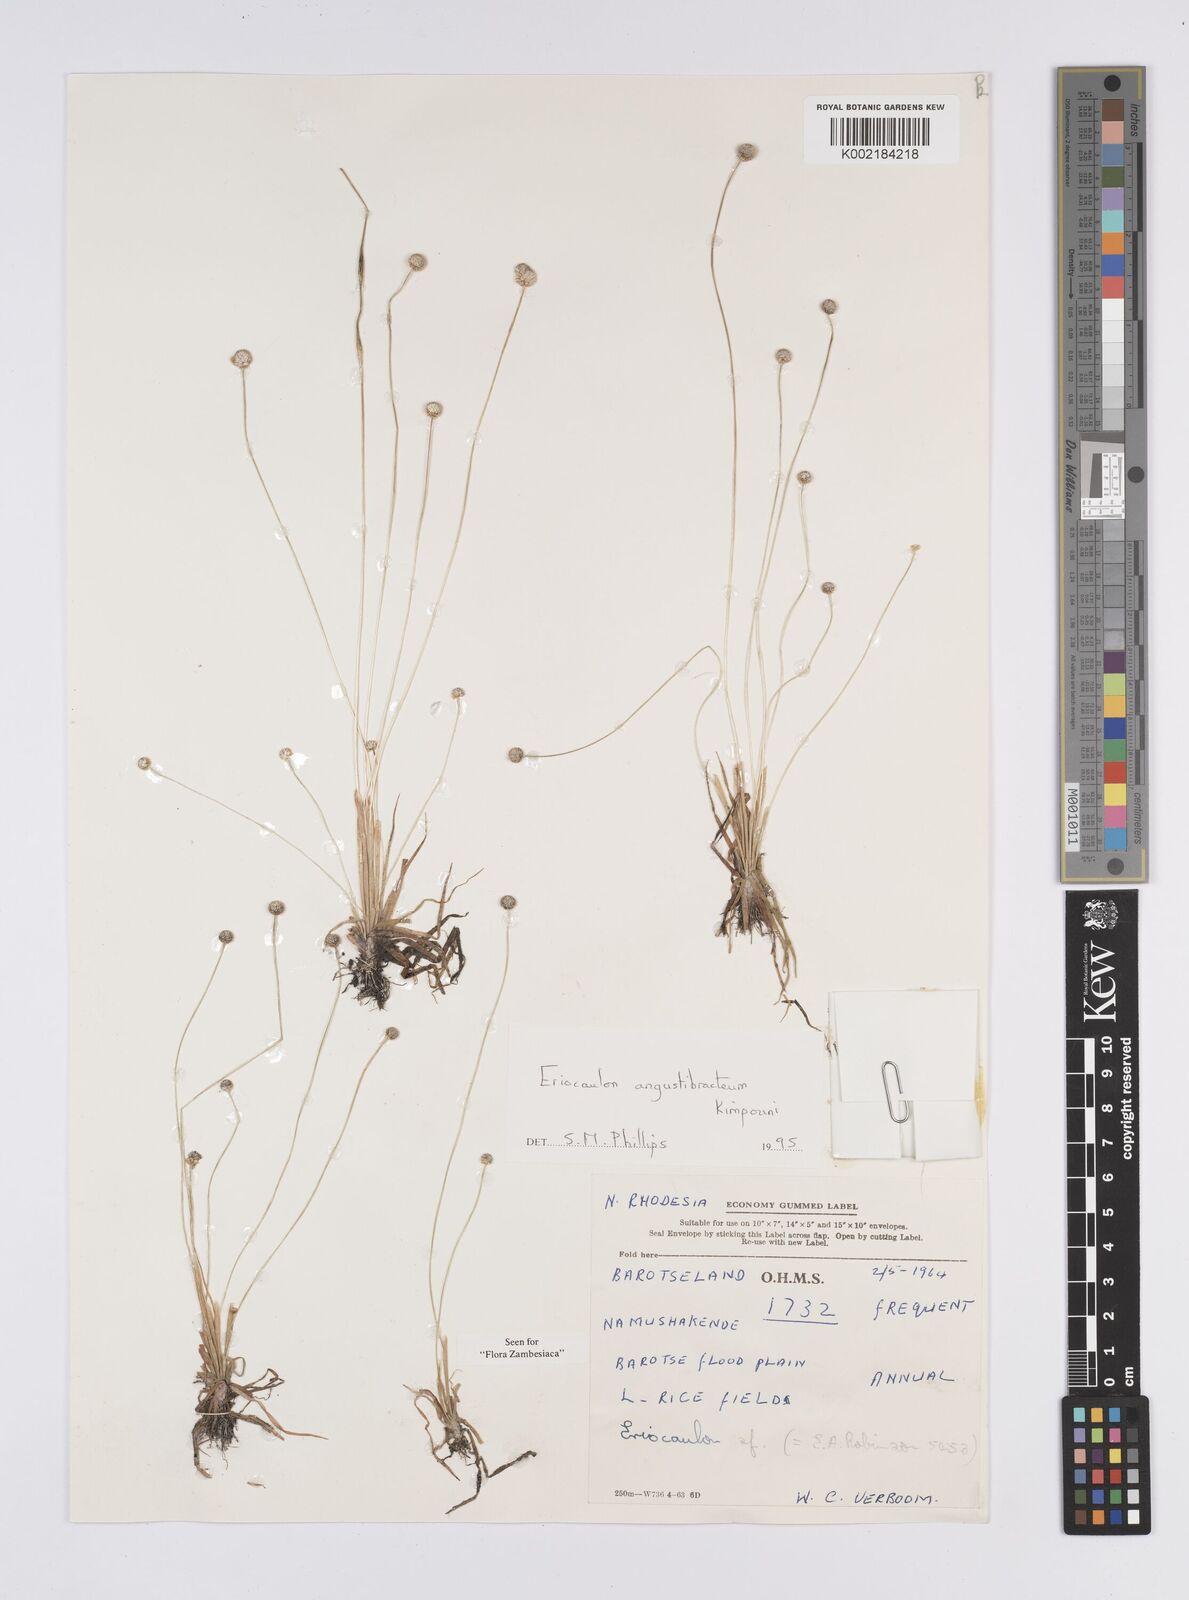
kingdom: Plantae
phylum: Tracheophyta
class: Liliopsida
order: Poales
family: Eriocaulaceae
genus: Eriocaulon
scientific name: Eriocaulon angustibracteum
